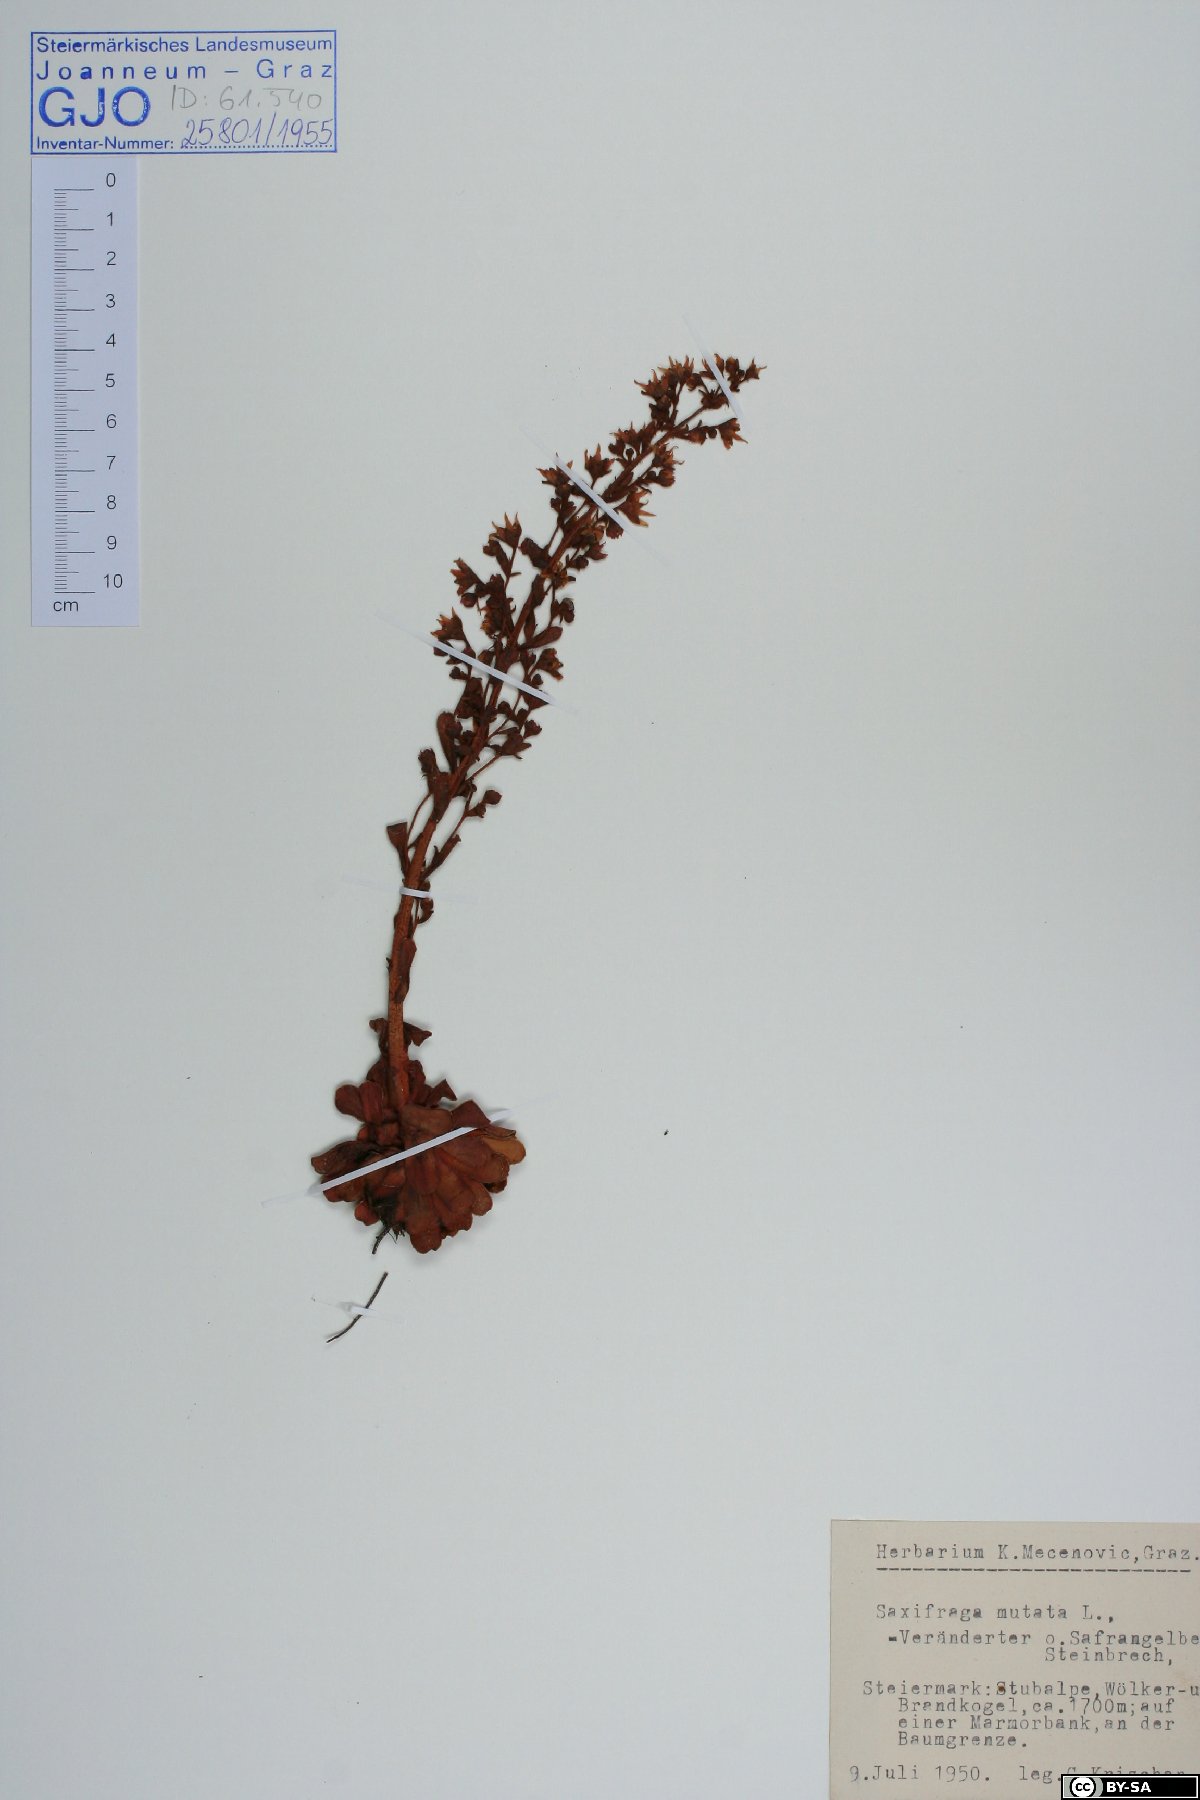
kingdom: Plantae
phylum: Tracheophyta
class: Magnoliopsida
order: Saxifragales
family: Saxifragaceae
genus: Saxifraga
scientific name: Saxifraga mutata
